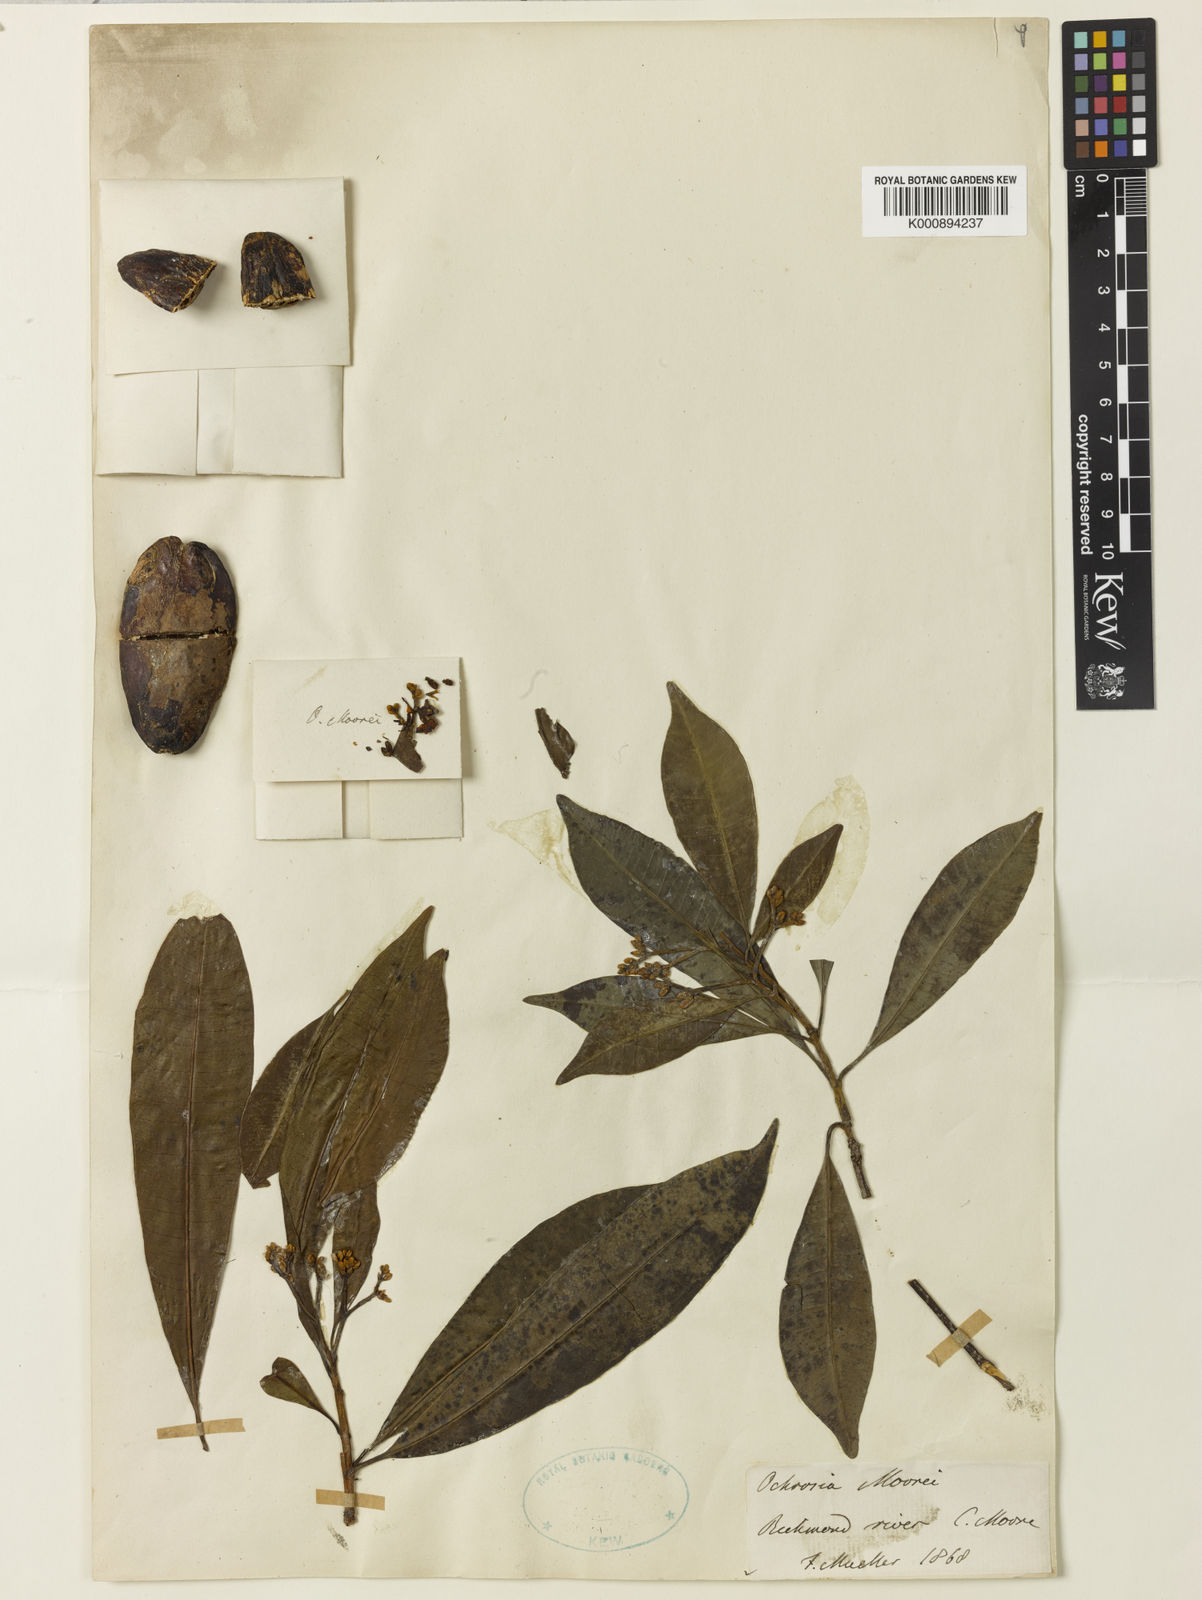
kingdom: Plantae
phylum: Tracheophyta
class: Magnoliopsida
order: Gentianales
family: Apocynaceae
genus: Ochrosia
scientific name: Ochrosia moorei
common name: Southern ochrosia
